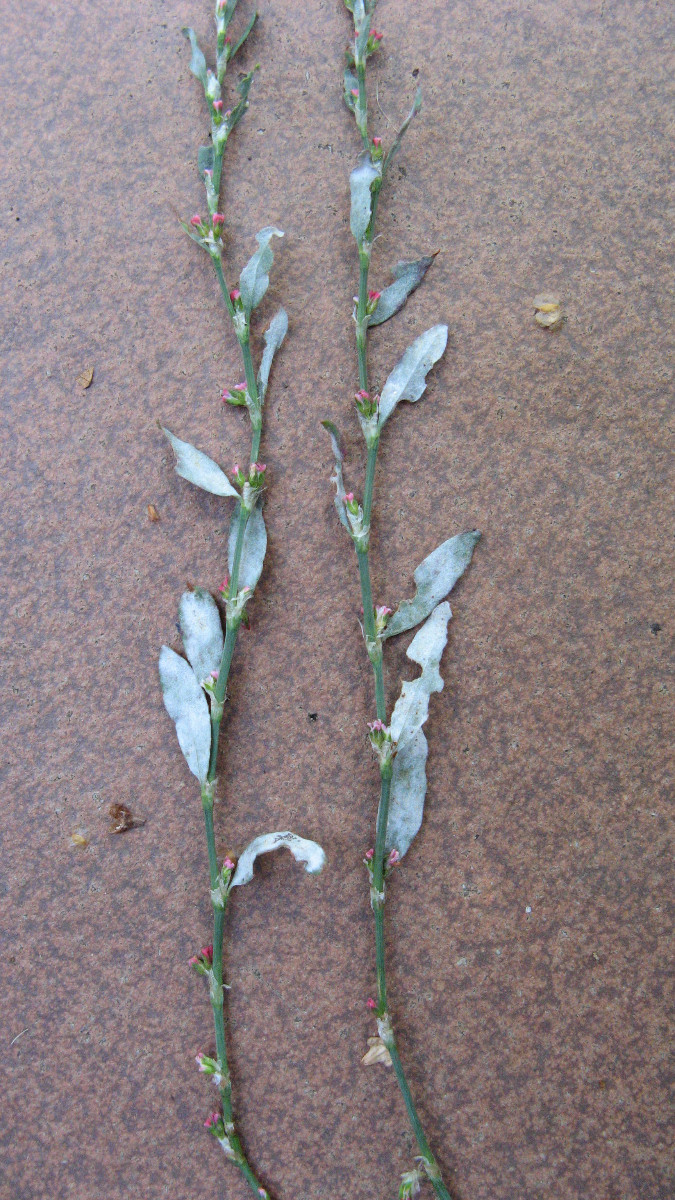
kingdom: Fungi
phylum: Ascomycota
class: Leotiomycetes
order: Helotiales
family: Erysiphaceae
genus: Erysiphe
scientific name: Erysiphe polygoni
